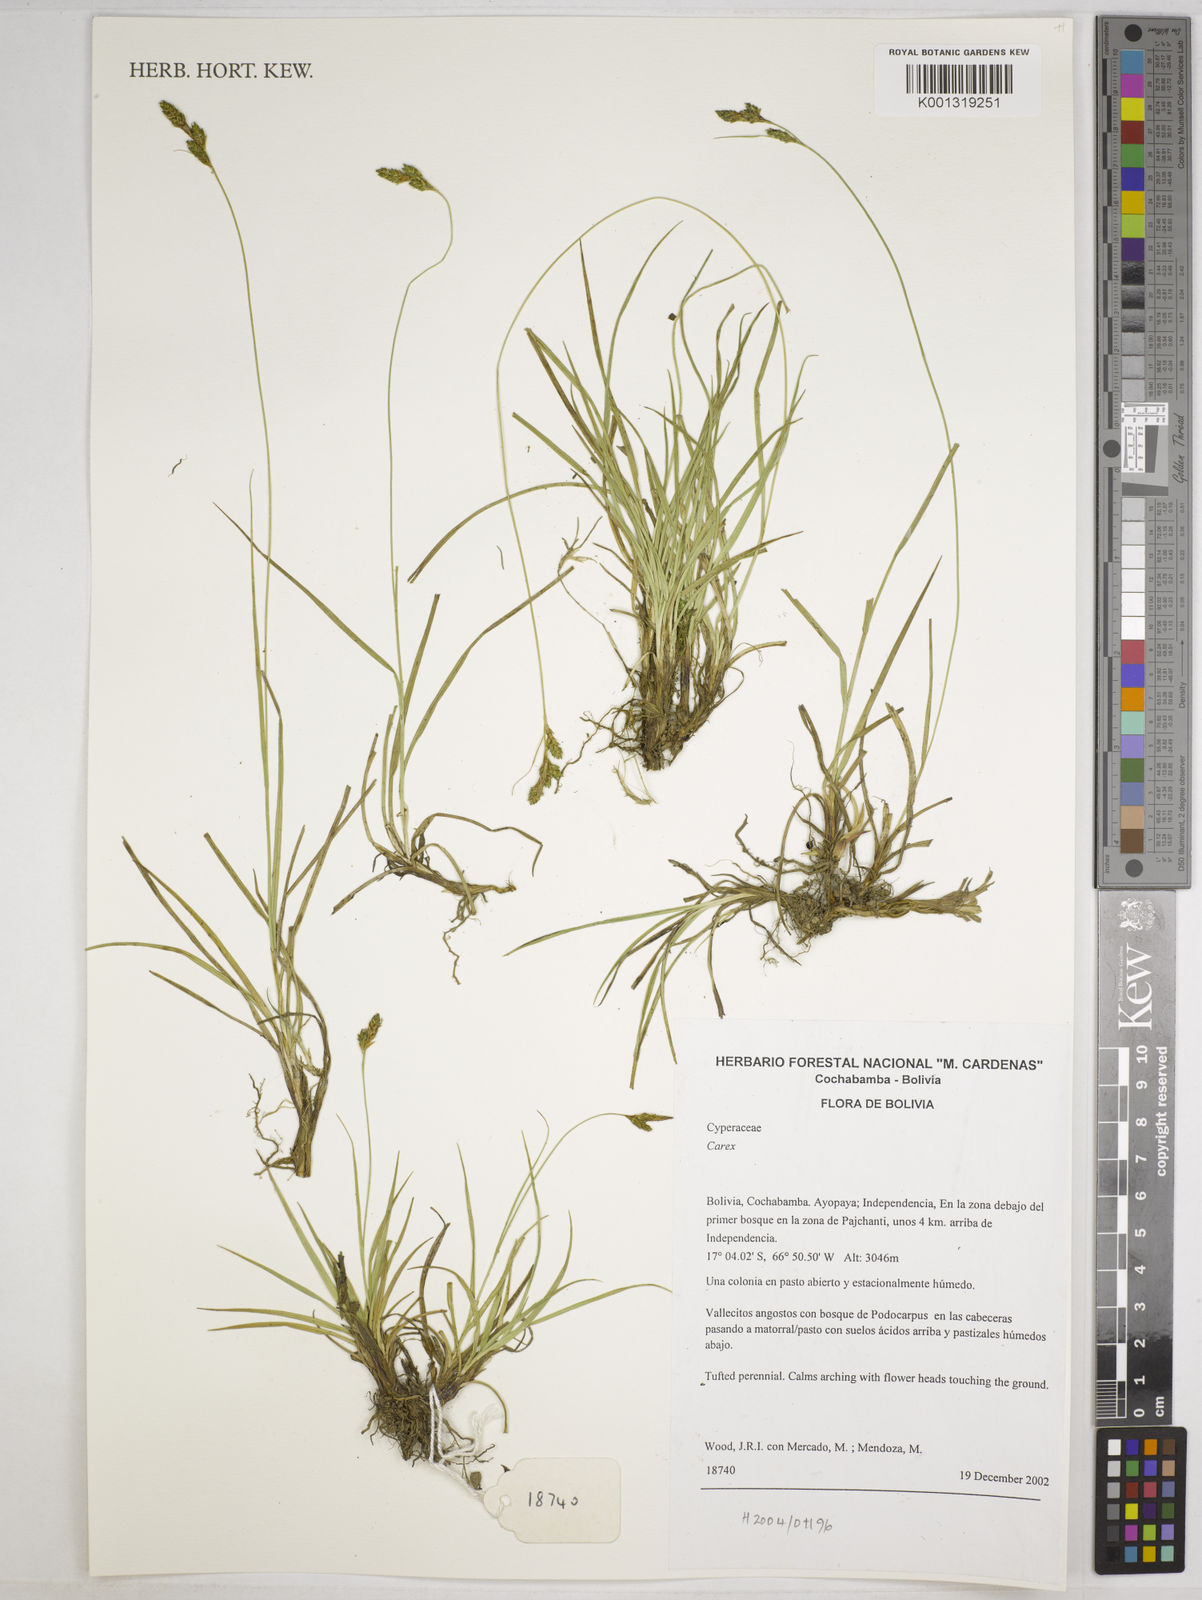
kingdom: Plantae
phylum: Tracheophyta
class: Liliopsida
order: Poales
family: Cyperaceae
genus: Carex
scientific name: Carex boliviensis
